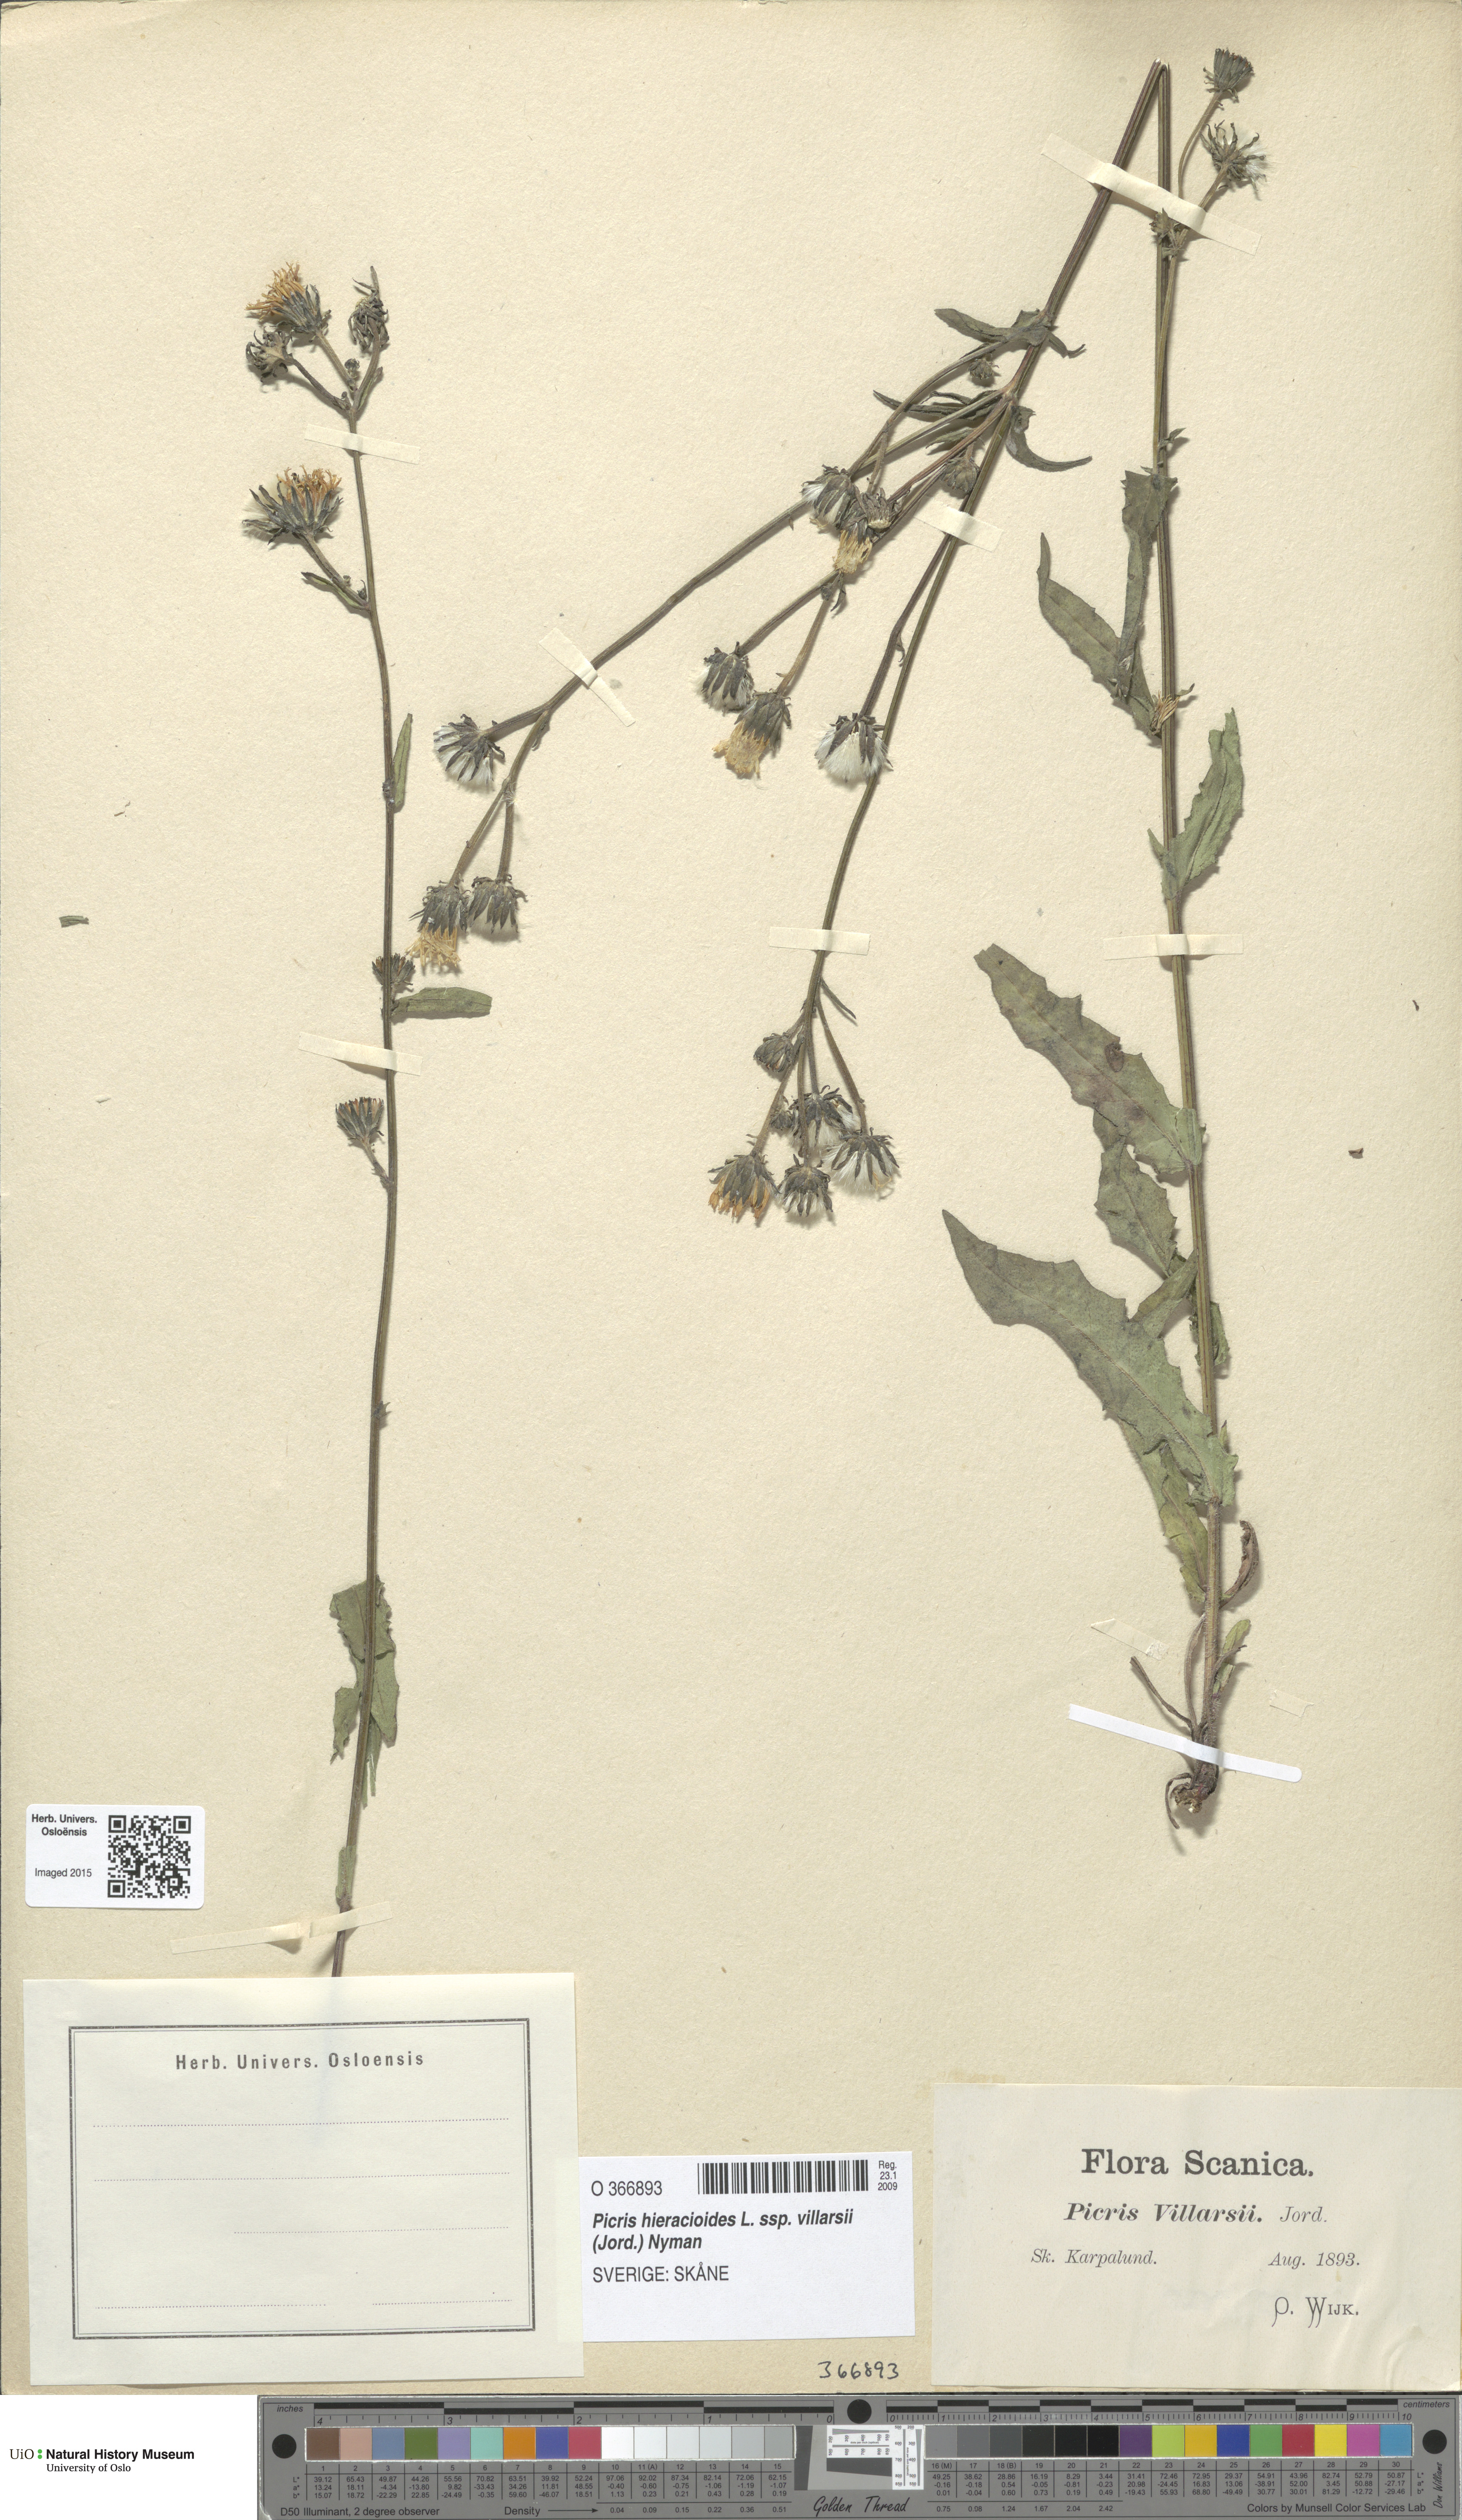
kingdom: Plantae
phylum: Tracheophyta
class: Magnoliopsida
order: Asterales
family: Asteraceae
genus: Picris
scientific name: Picris hieracioides
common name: Hawkweed oxtongue
